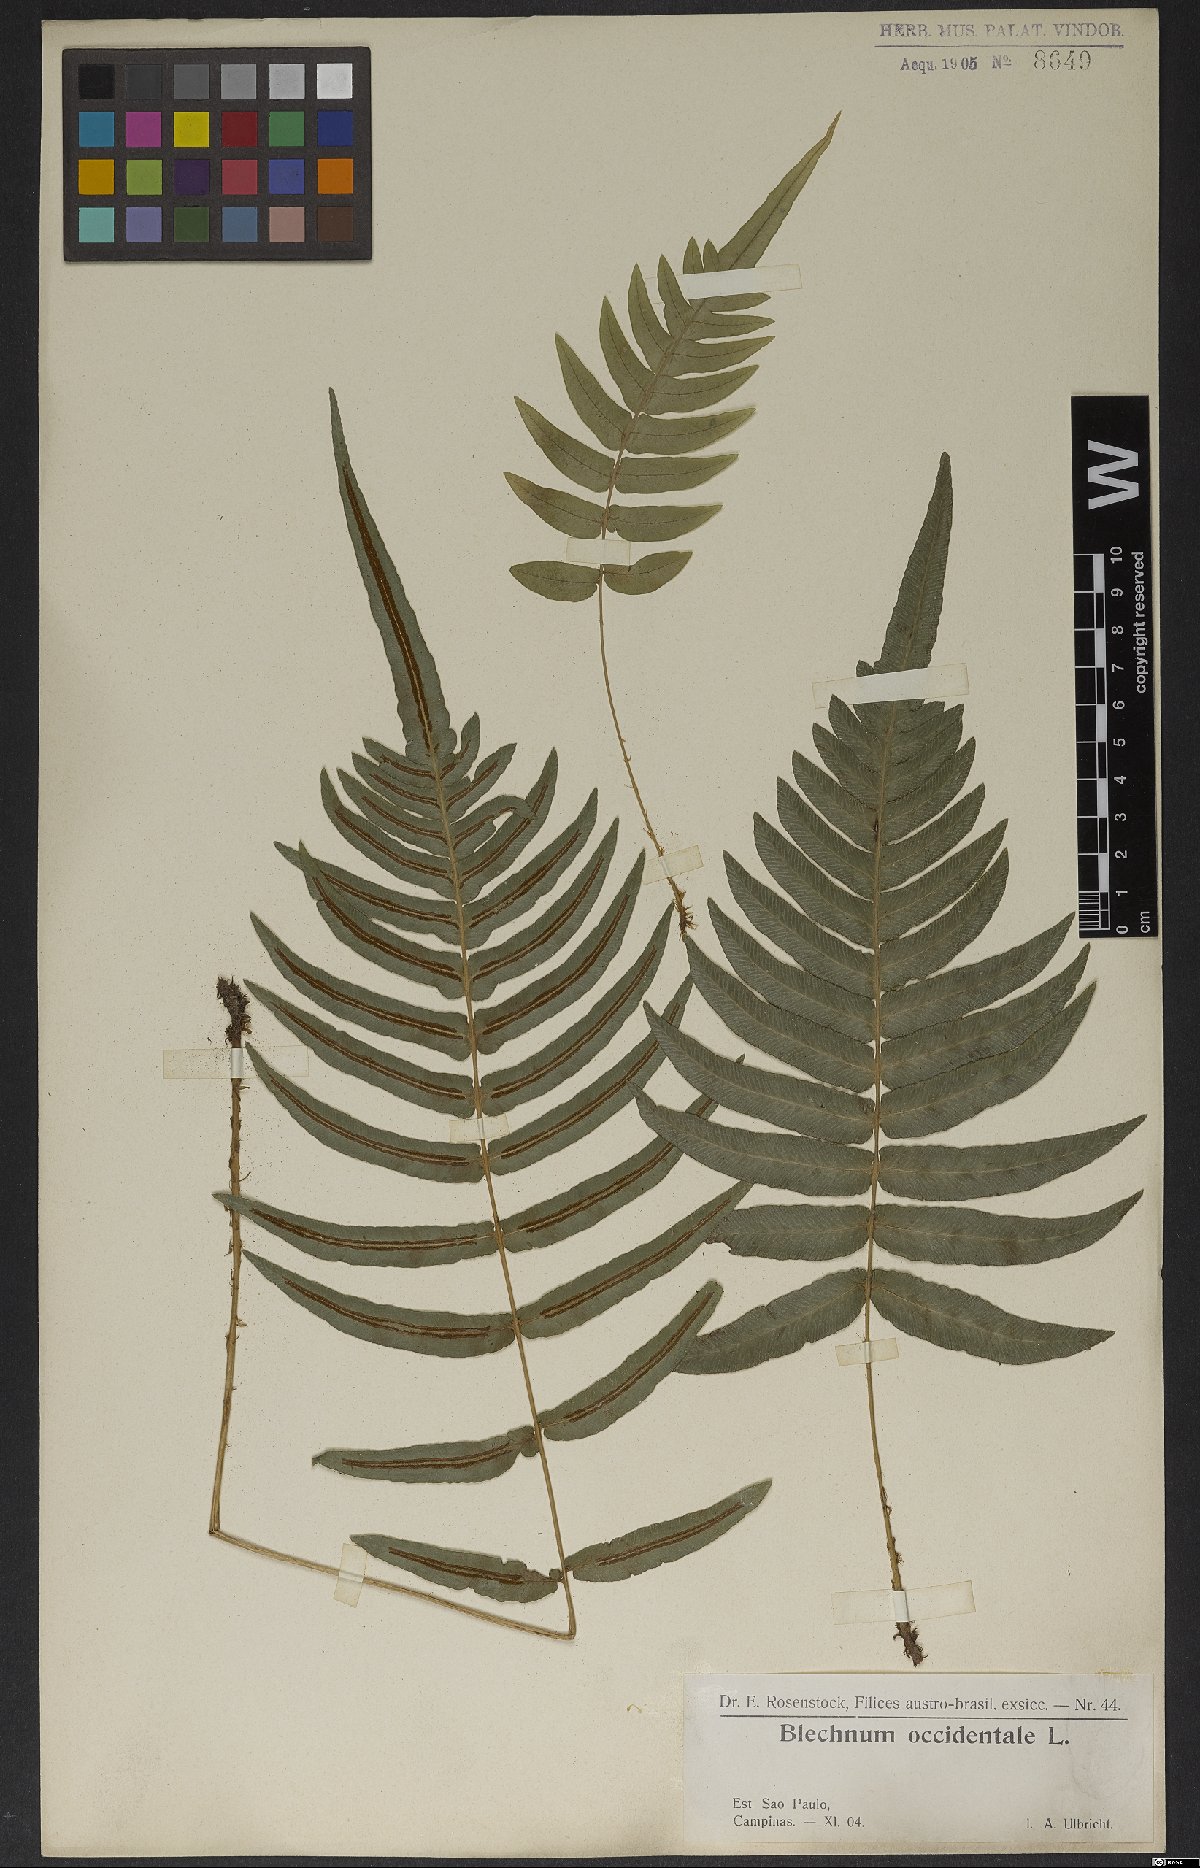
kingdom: Plantae
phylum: Tracheophyta
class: Polypodiopsida
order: Polypodiales
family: Blechnaceae
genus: Blechnum
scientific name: Blechnum occidentale
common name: Hammock fern
